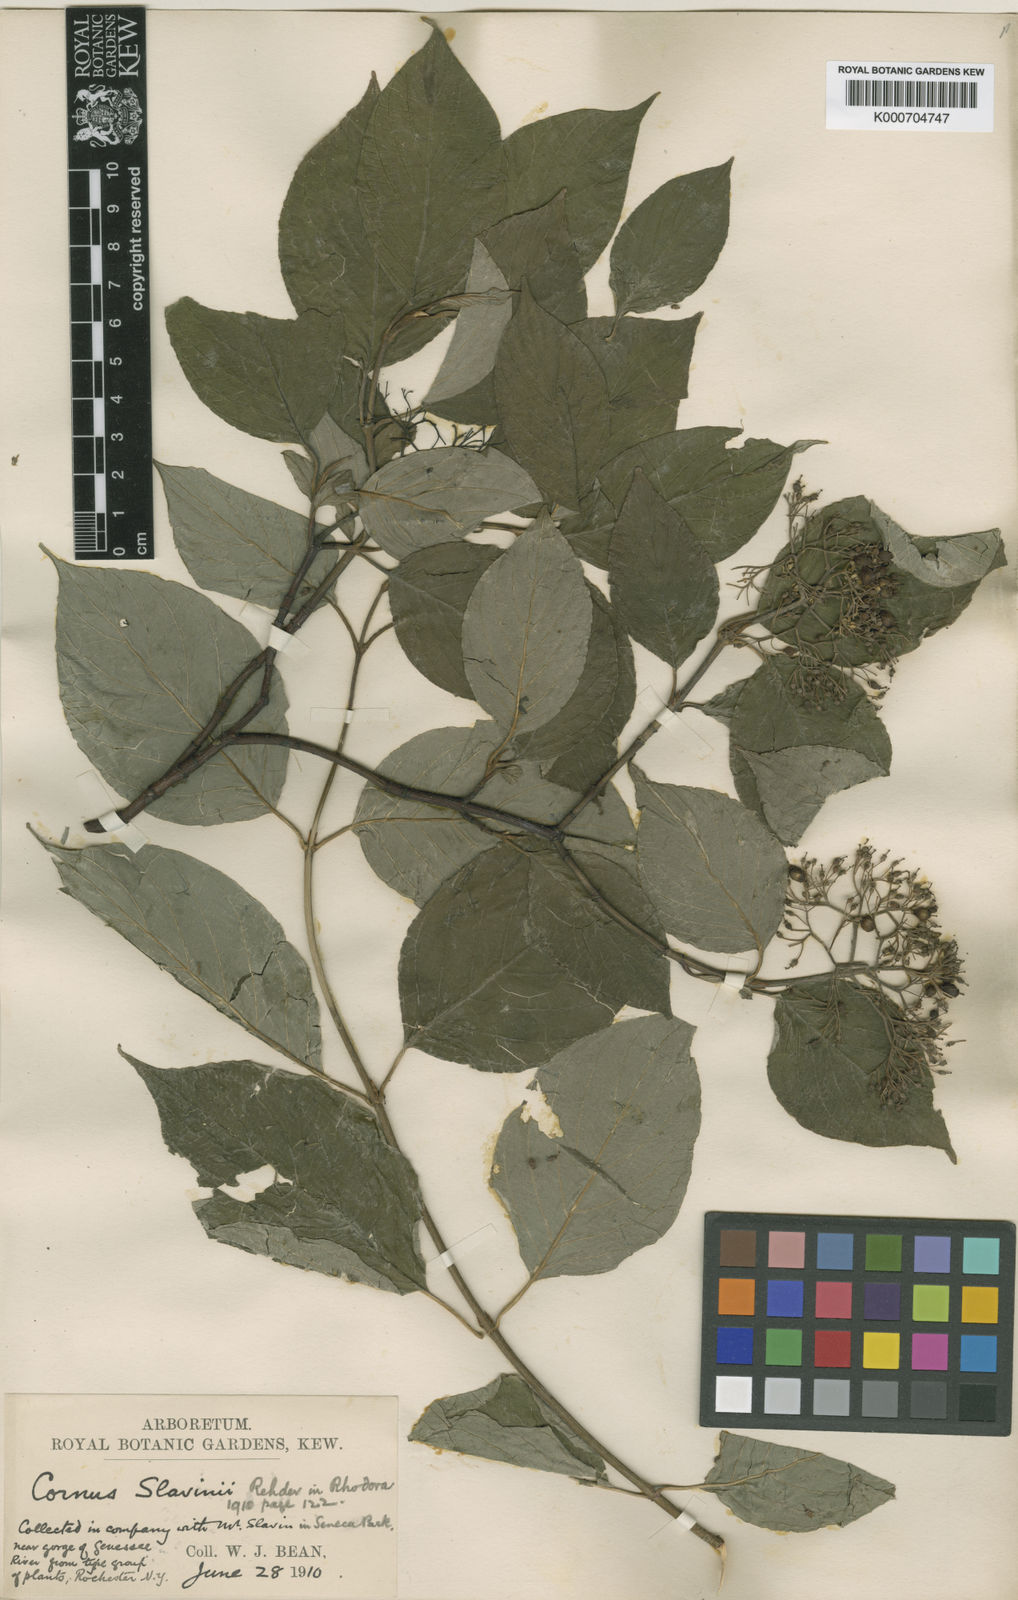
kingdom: Plantae
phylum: Tracheophyta
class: Magnoliopsida
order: Cornales
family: Cornaceae
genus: Cornus
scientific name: Cornus slavinii
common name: Slavin's dogwood
